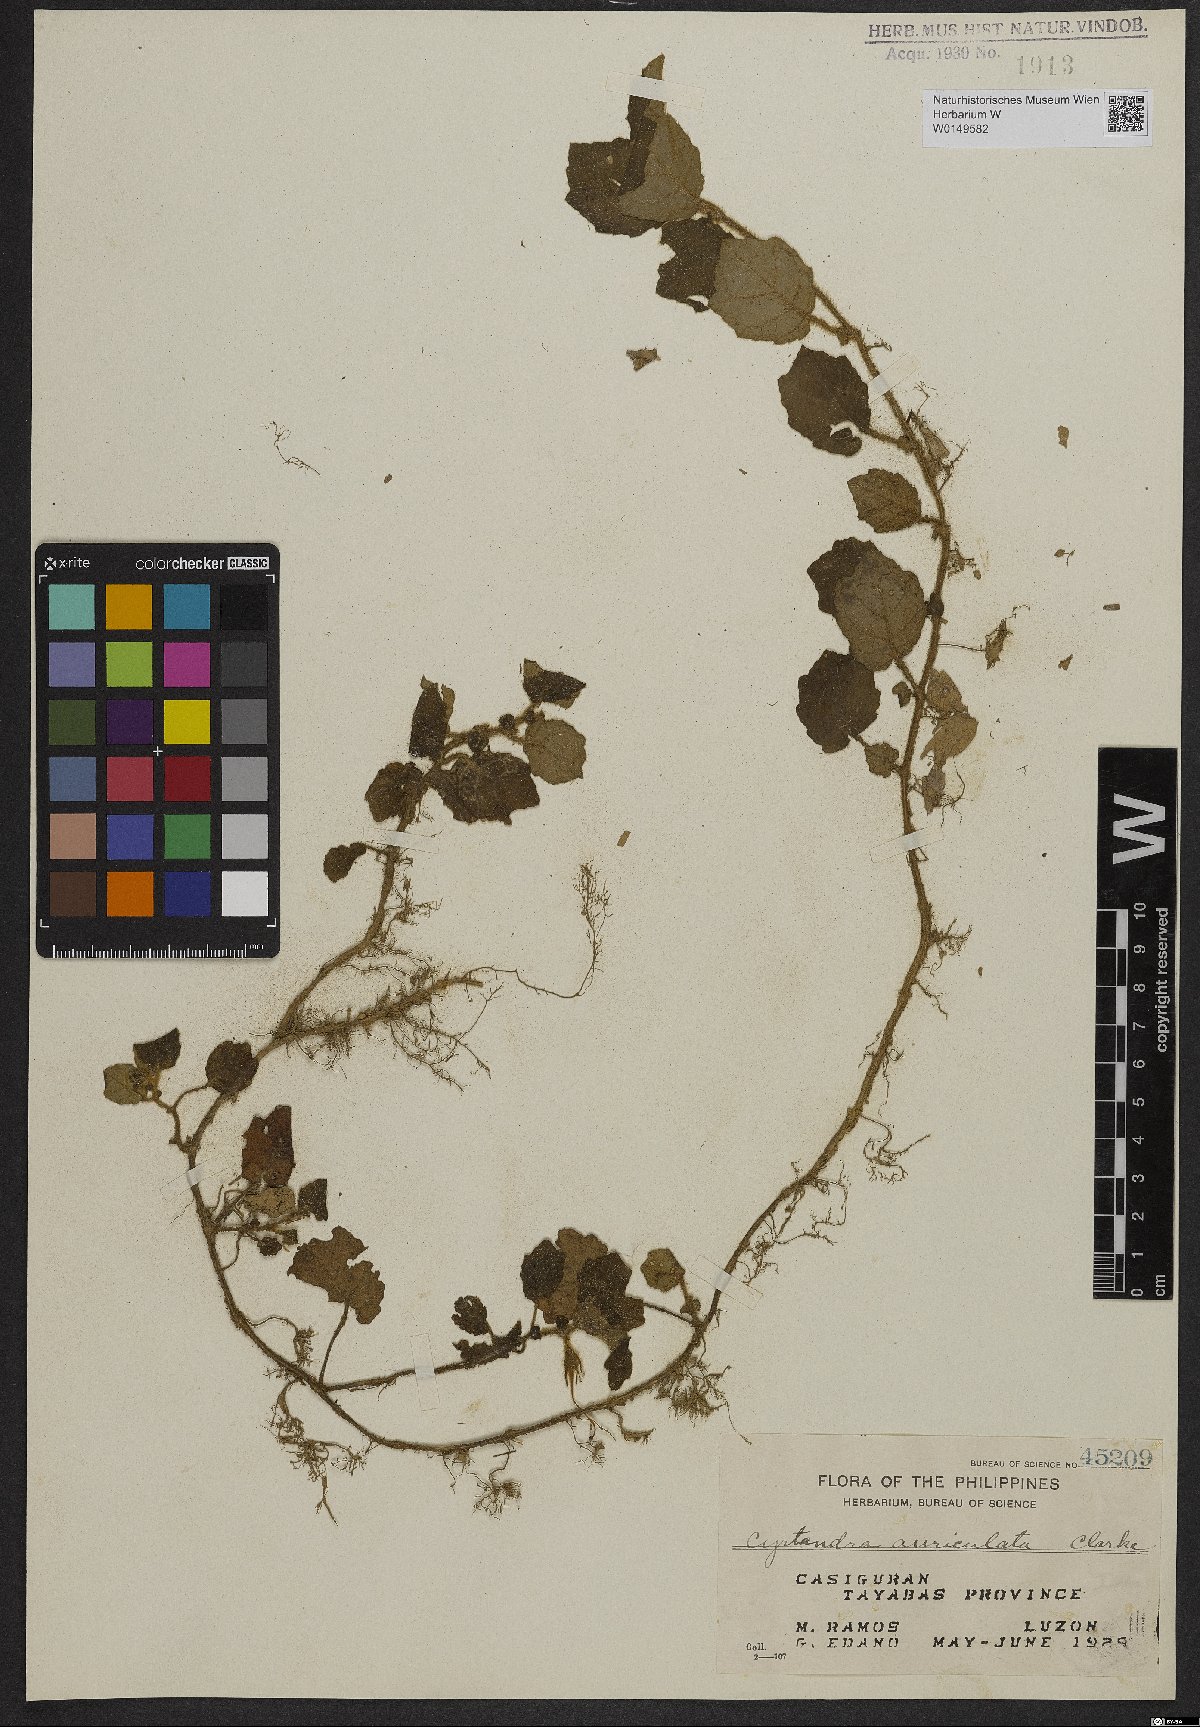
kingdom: Plantae
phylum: Tracheophyta
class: Magnoliopsida
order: Lamiales
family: Gesneriaceae
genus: Cyrtandra
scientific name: Cyrtandra auriculata
